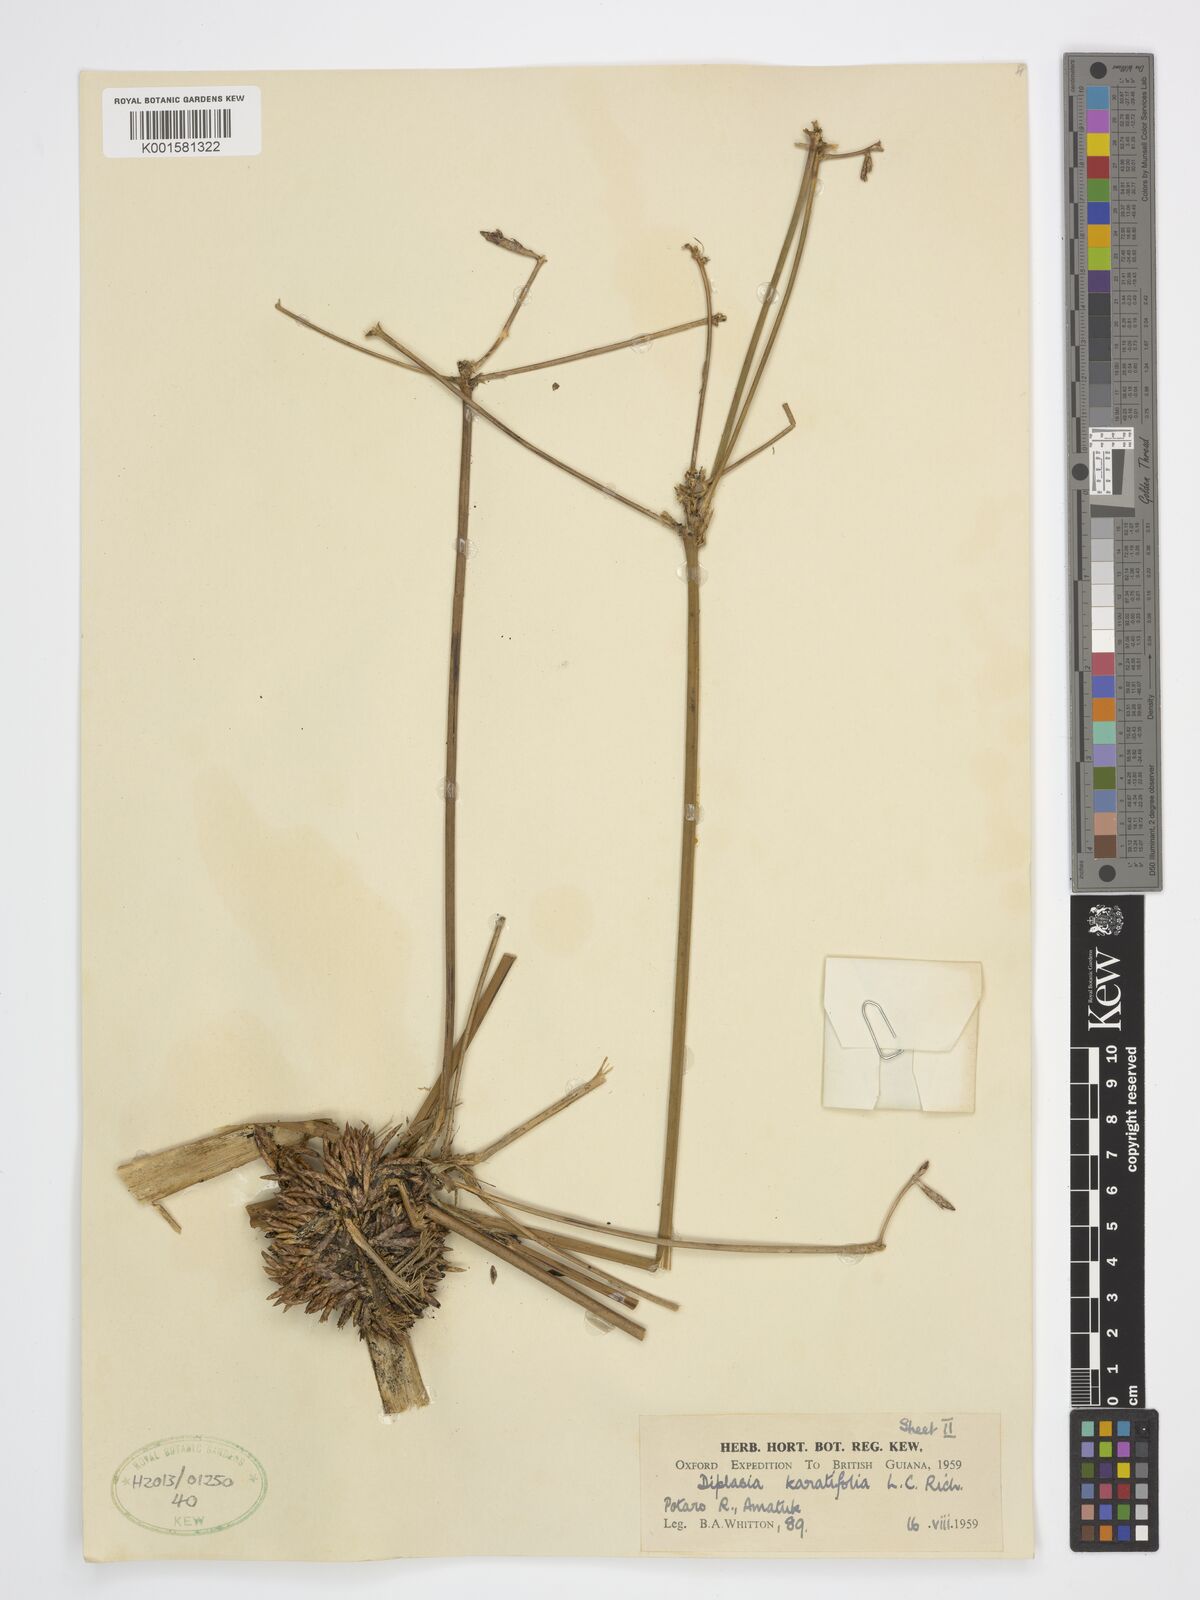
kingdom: Plantae
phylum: Tracheophyta
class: Liliopsida
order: Poales
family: Cyperaceae
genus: Diplasia
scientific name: Diplasia karatifolia
